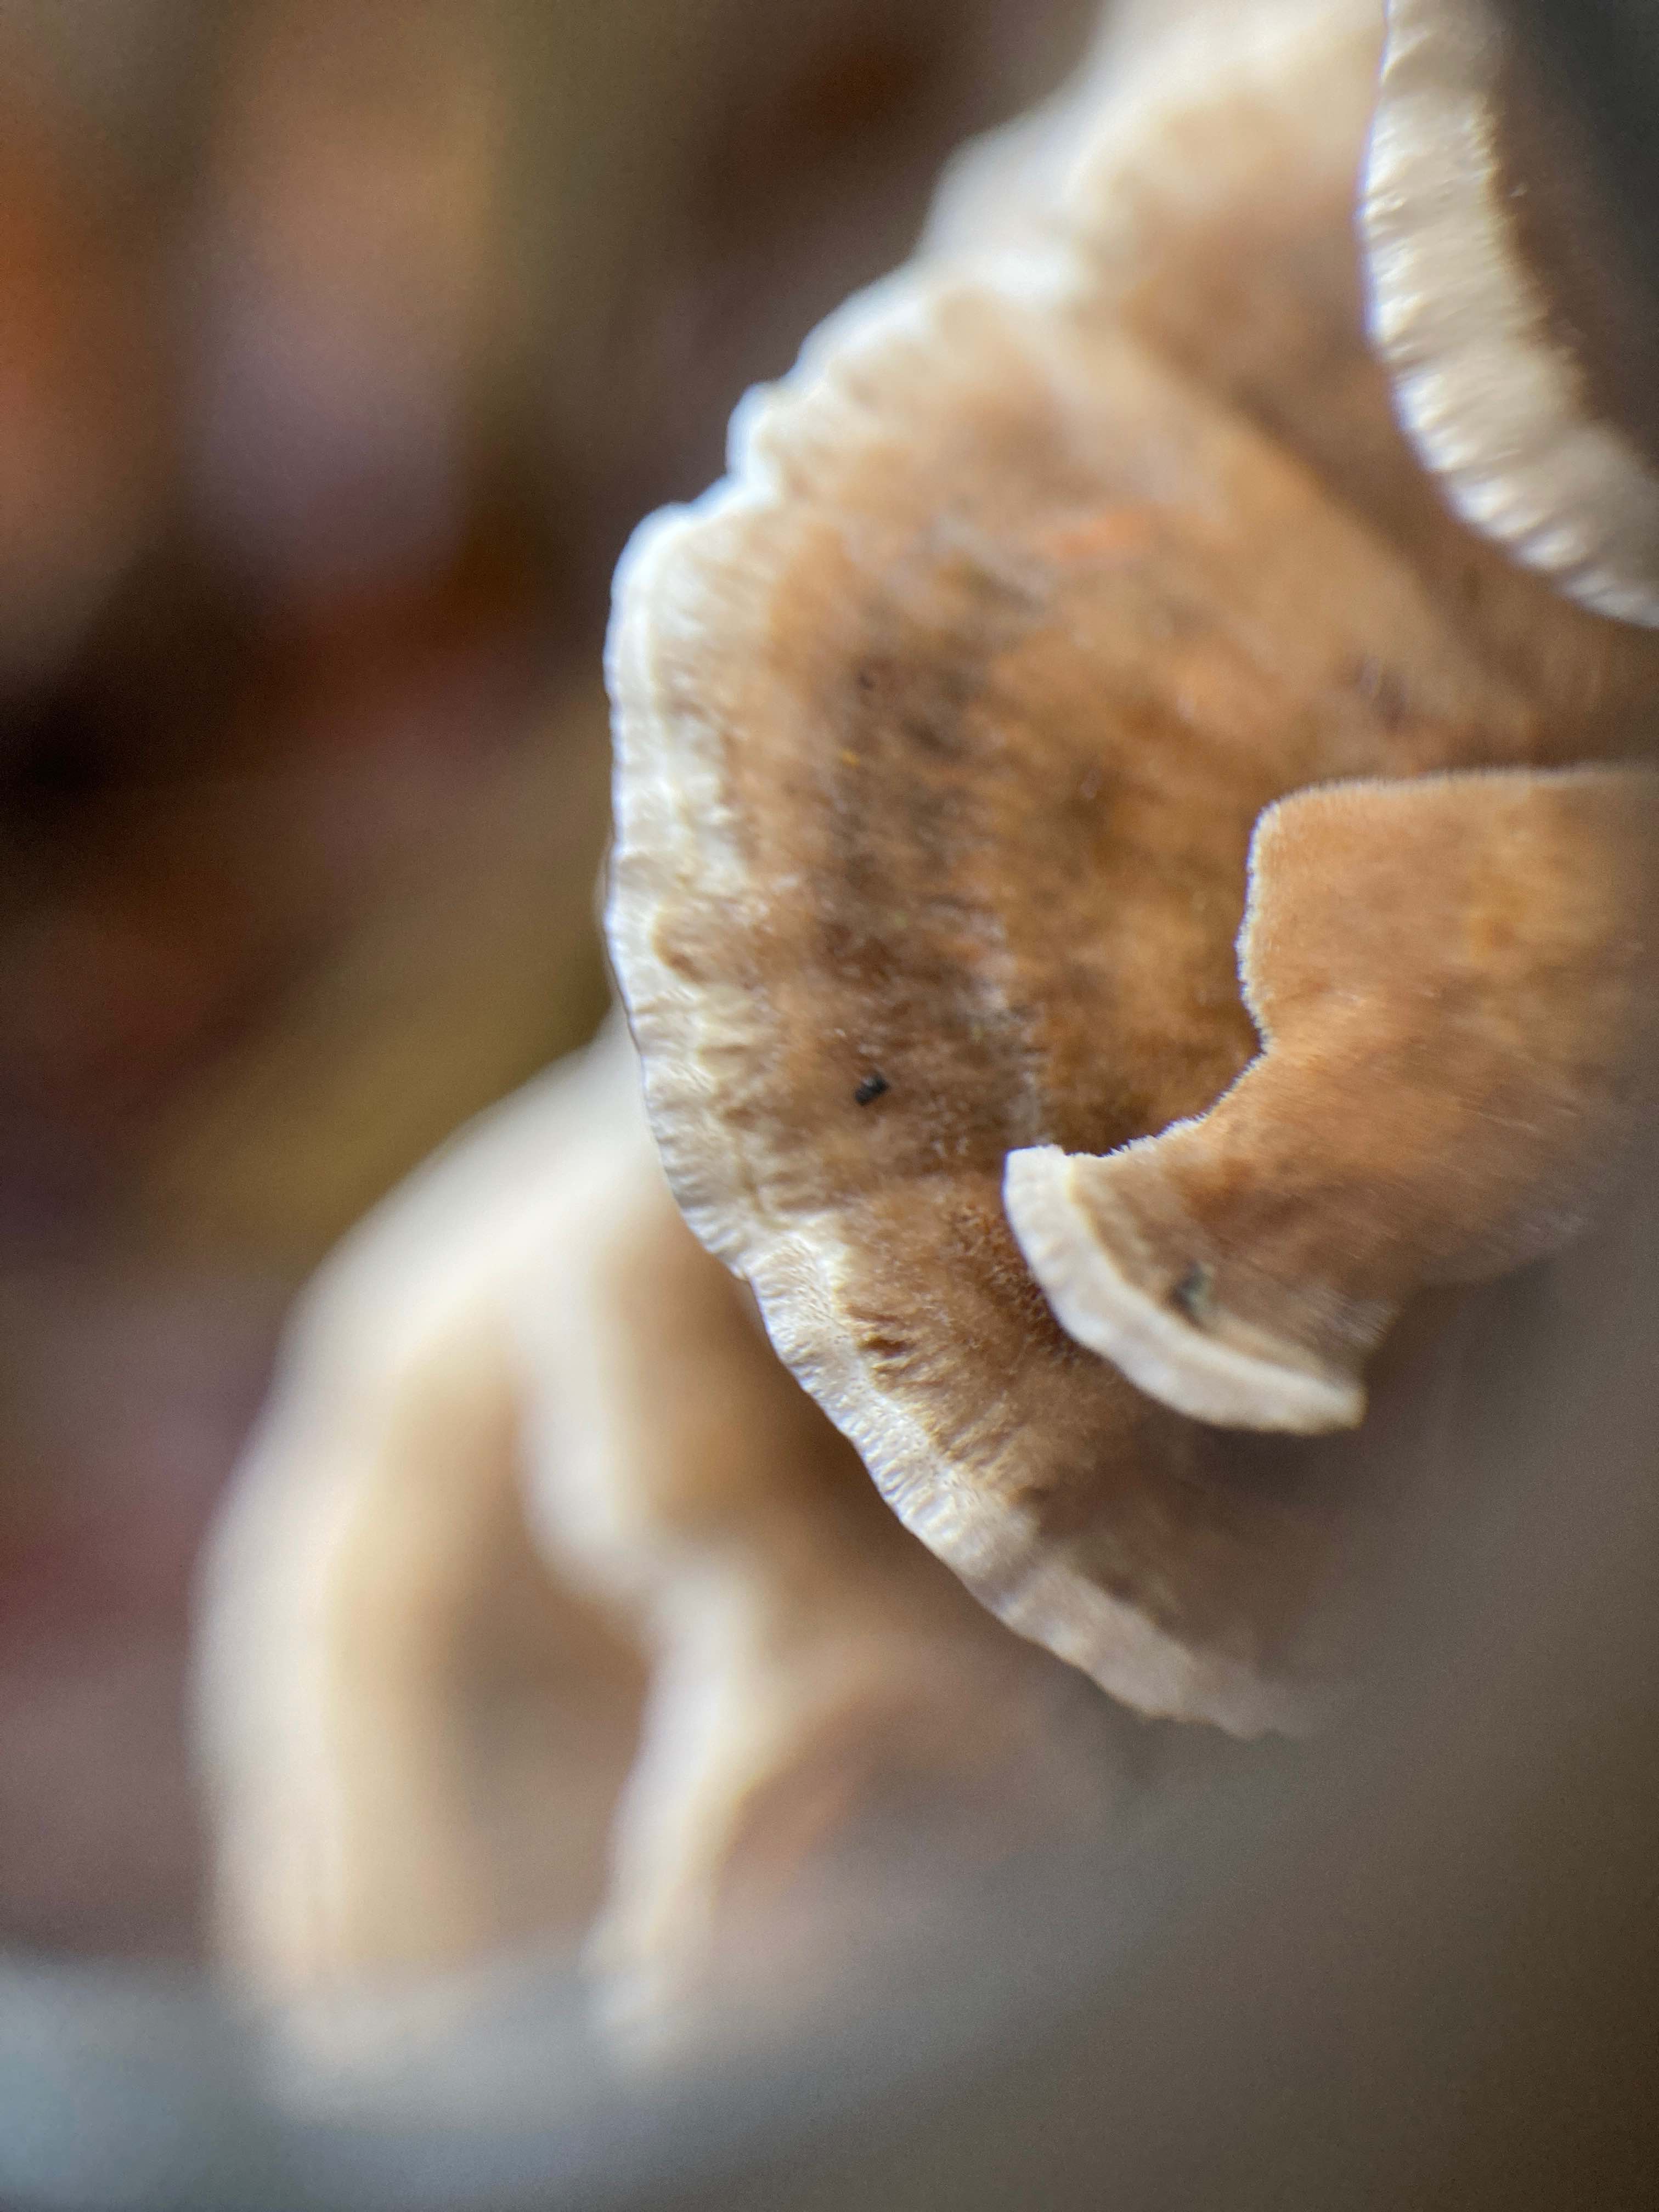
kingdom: Fungi
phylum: Basidiomycota
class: Agaricomycetes
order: Polyporales
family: Polyporaceae
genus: Trametes
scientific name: Trametes versicolor
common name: broget læderporesvamp
